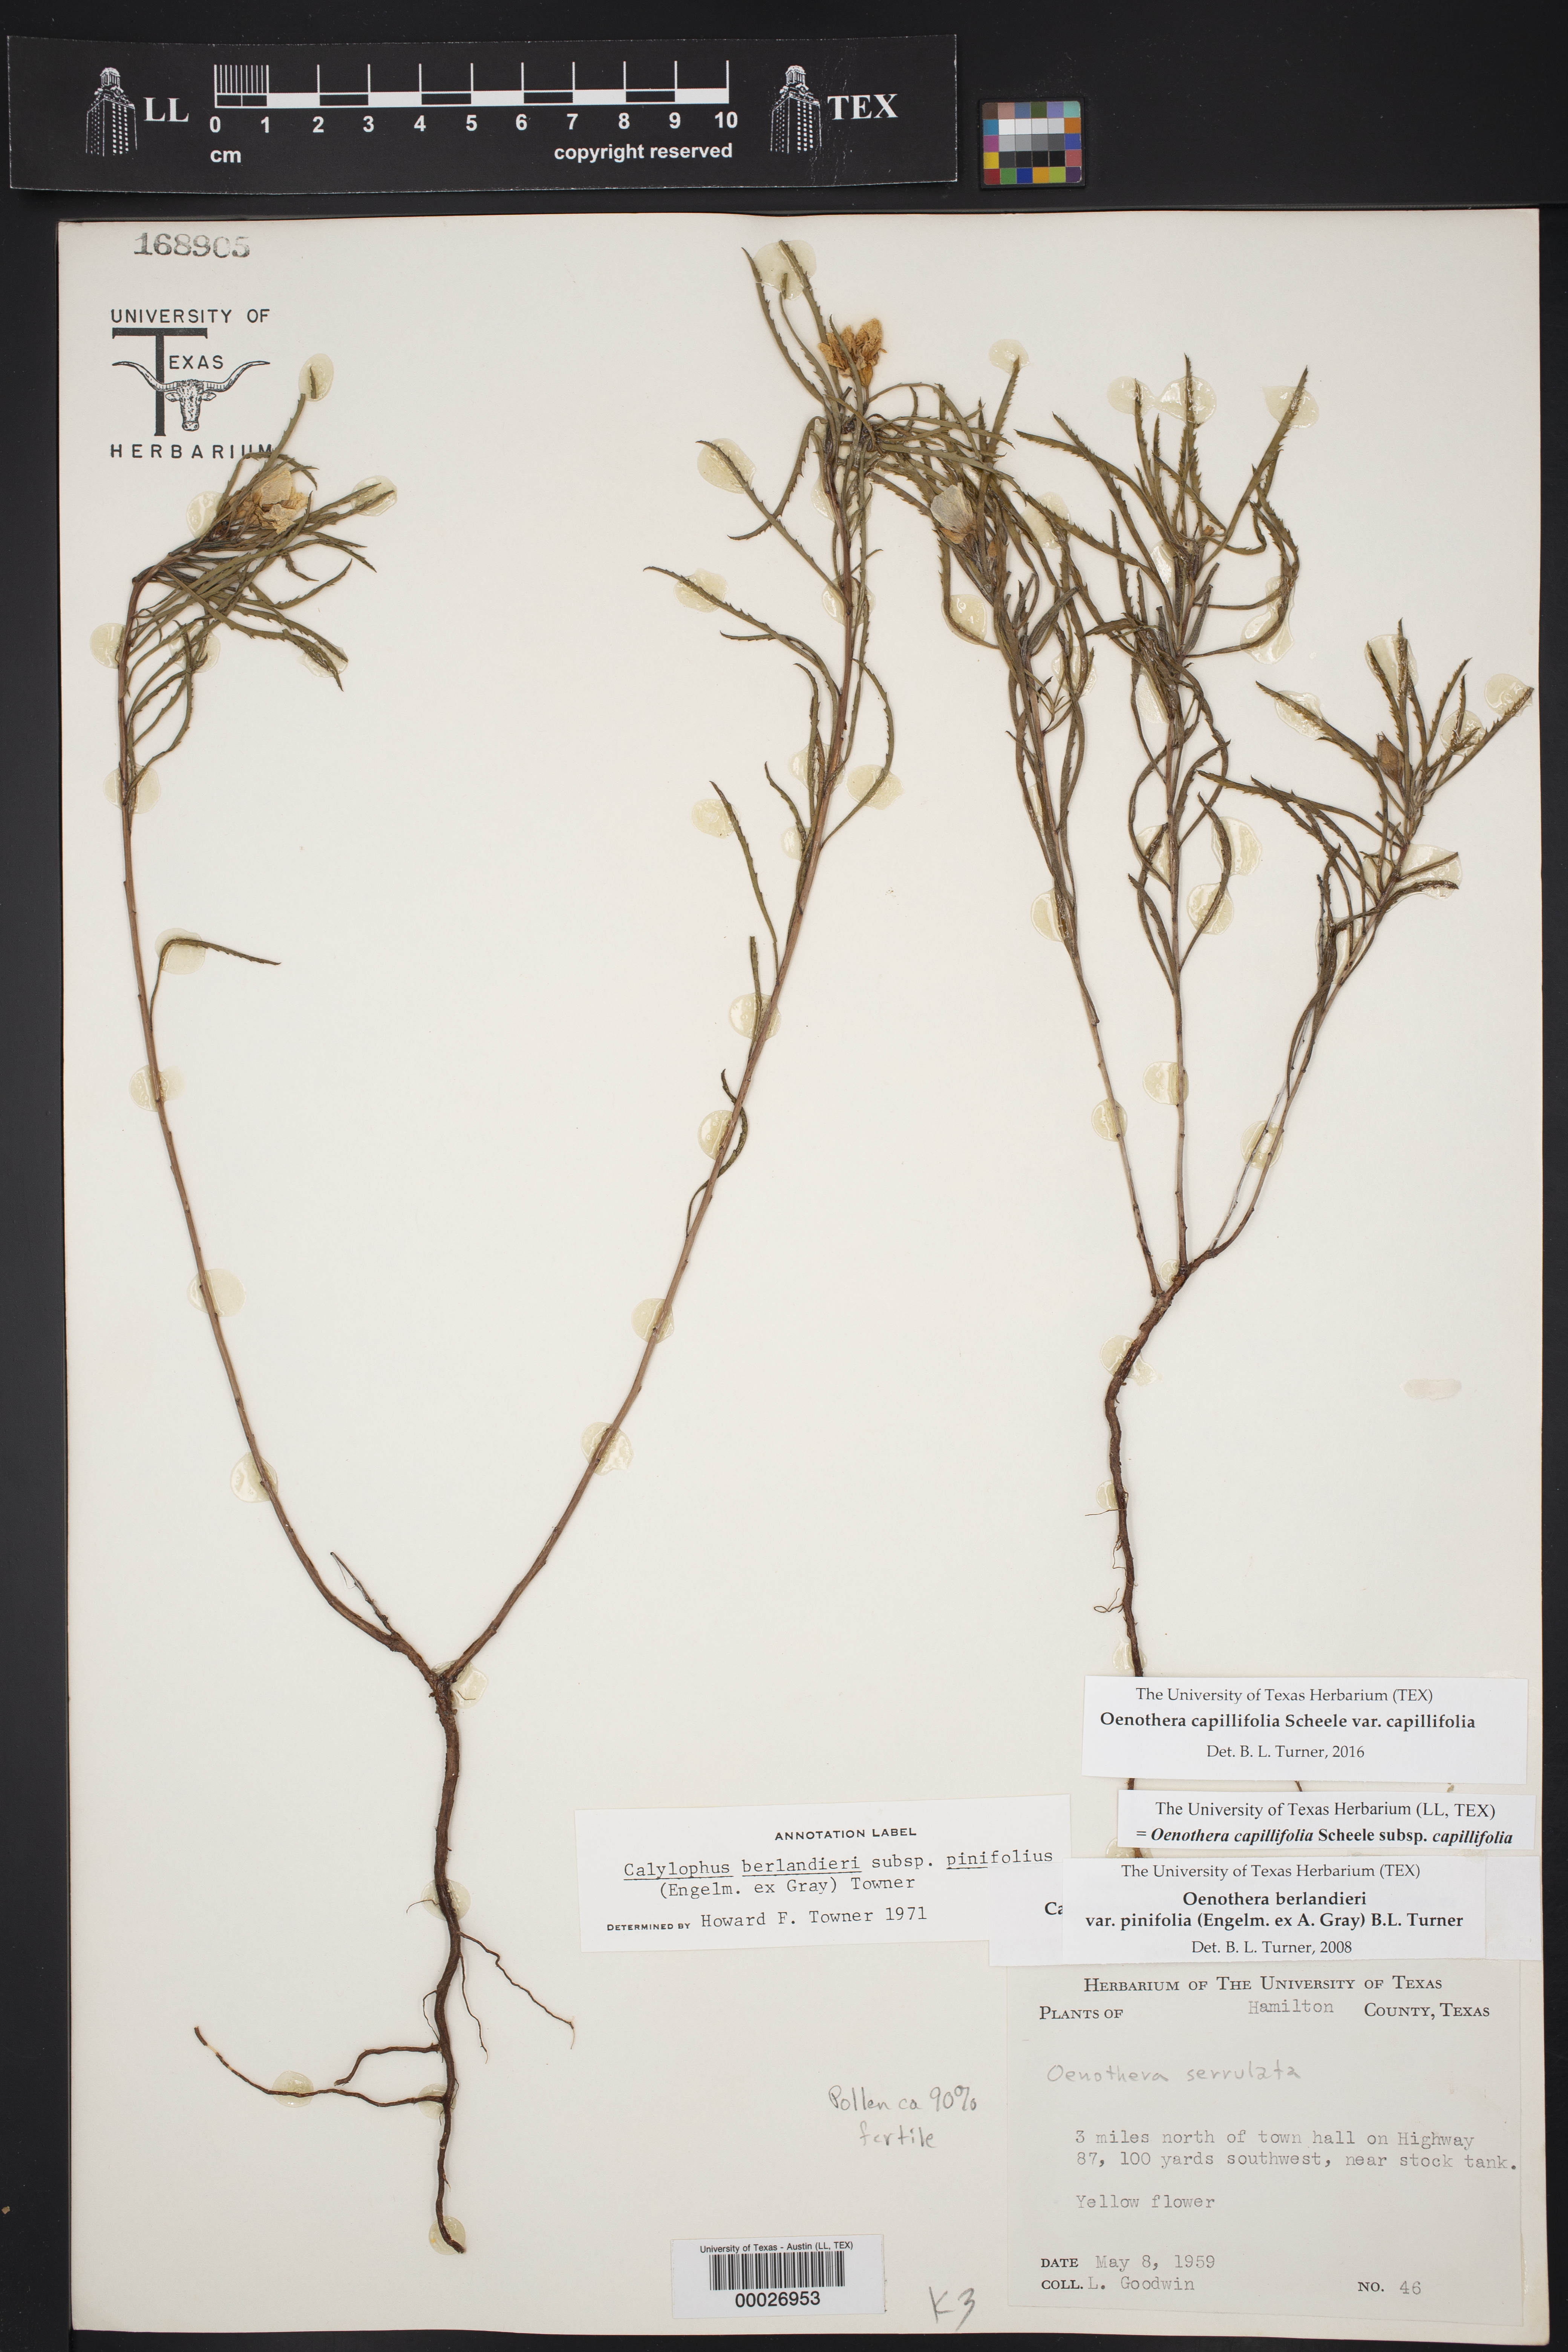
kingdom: Plantae
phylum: Tracheophyta
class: Magnoliopsida
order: Myrtales
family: Onagraceae
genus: Oenothera
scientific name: Oenothera capillifolia
